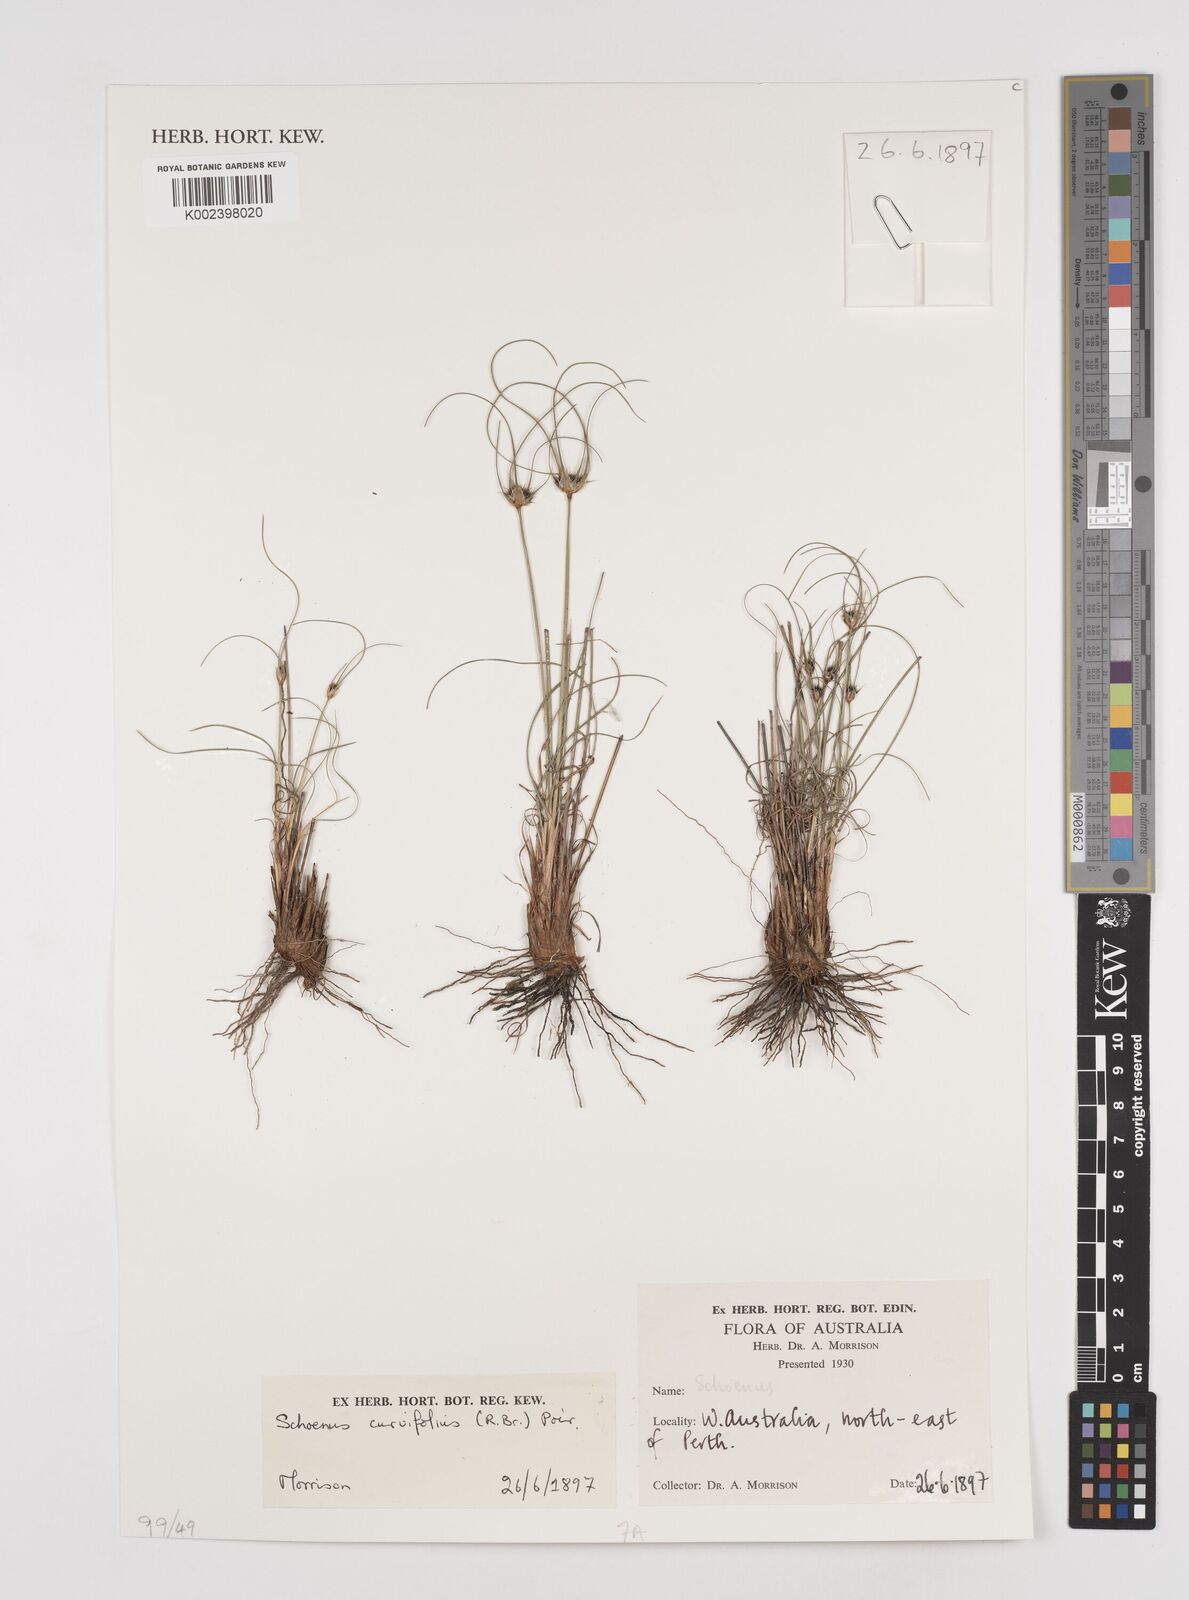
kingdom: Plantae
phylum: Tracheophyta
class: Liliopsida
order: Poales
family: Cyperaceae
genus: Schoenus
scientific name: Schoenus curvifolius
